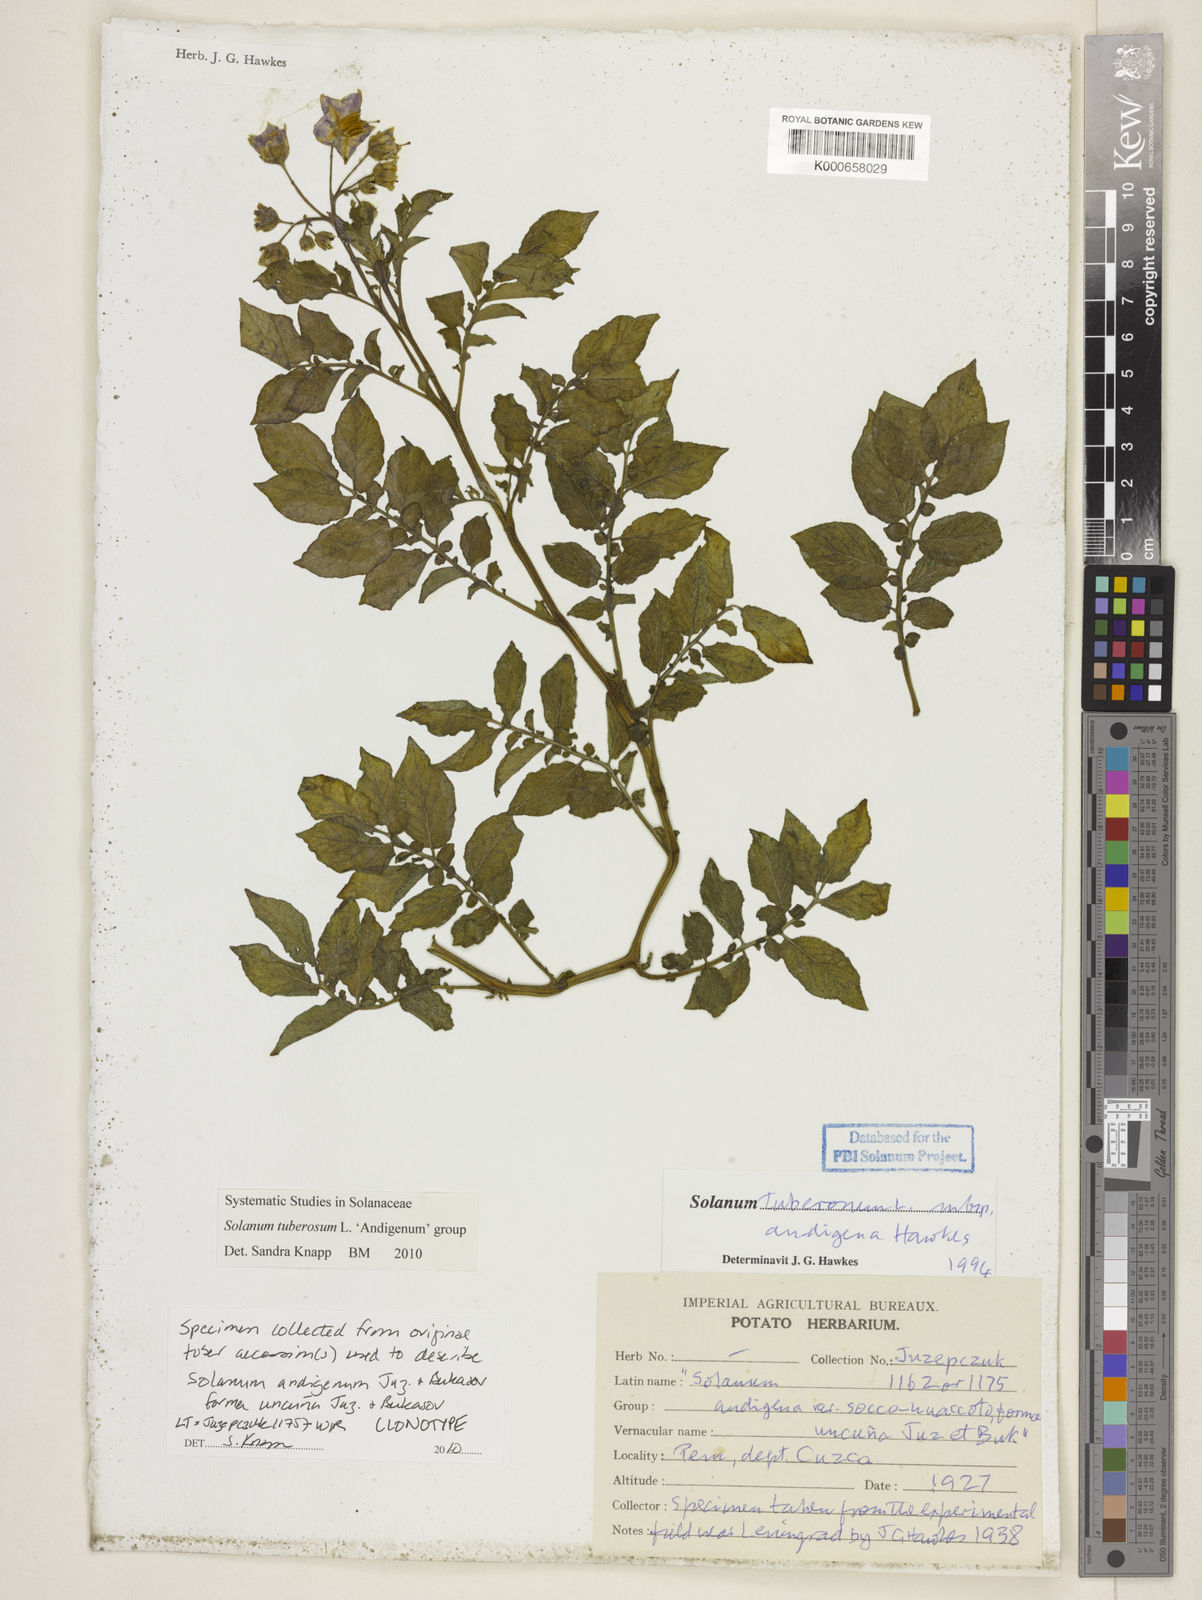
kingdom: Plantae
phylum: Tracheophyta
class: Magnoliopsida
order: Solanales
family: Solanaceae
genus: Solanum
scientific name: Solanum tuberosum
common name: Potato
